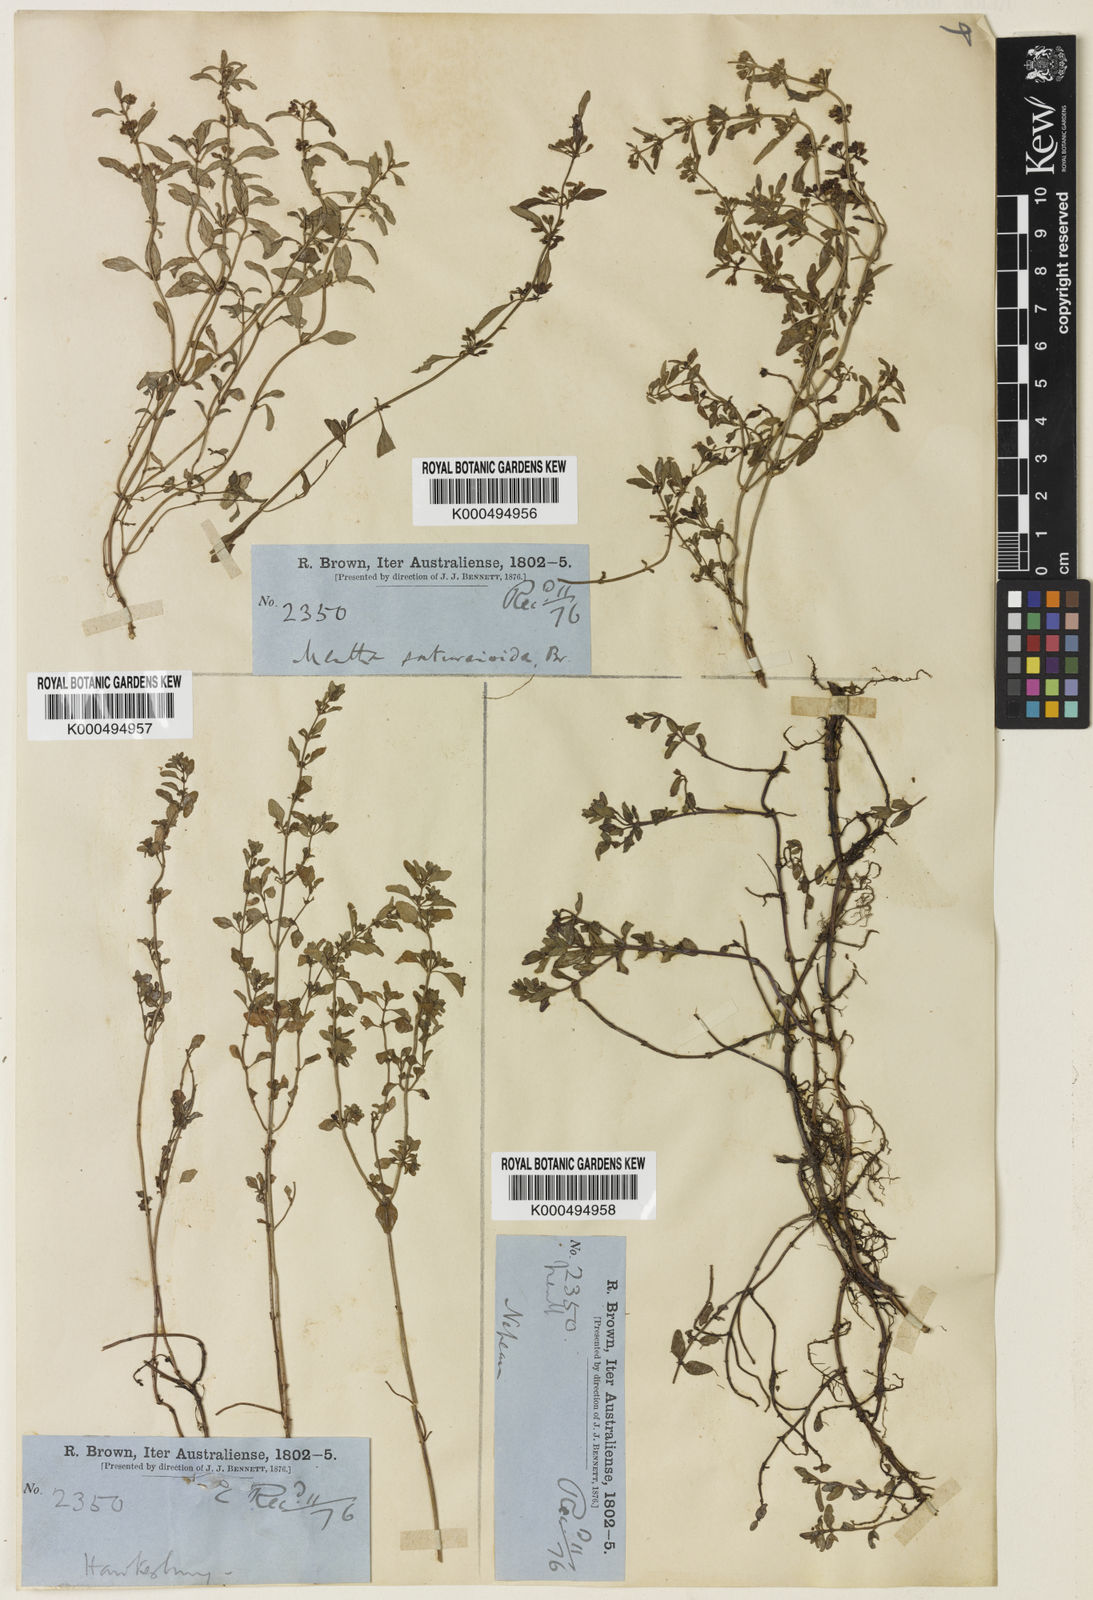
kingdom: Plantae
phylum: Tracheophyta
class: Magnoliopsida
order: Lamiales
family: Lamiaceae
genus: Mentha
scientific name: Mentha satureioides
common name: Brisbane pennyroyal
